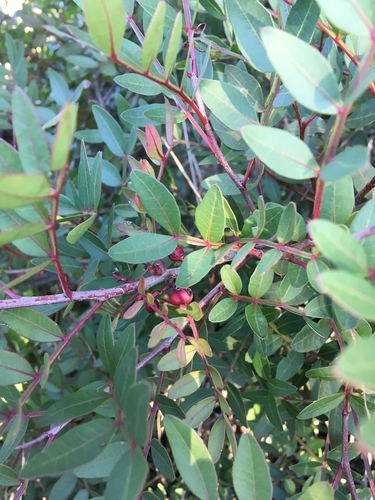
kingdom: Plantae
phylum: Tracheophyta
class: Magnoliopsida
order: Sapindales
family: Anacardiaceae
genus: Pistacia
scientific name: Pistacia lentiscus
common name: Lentisk
